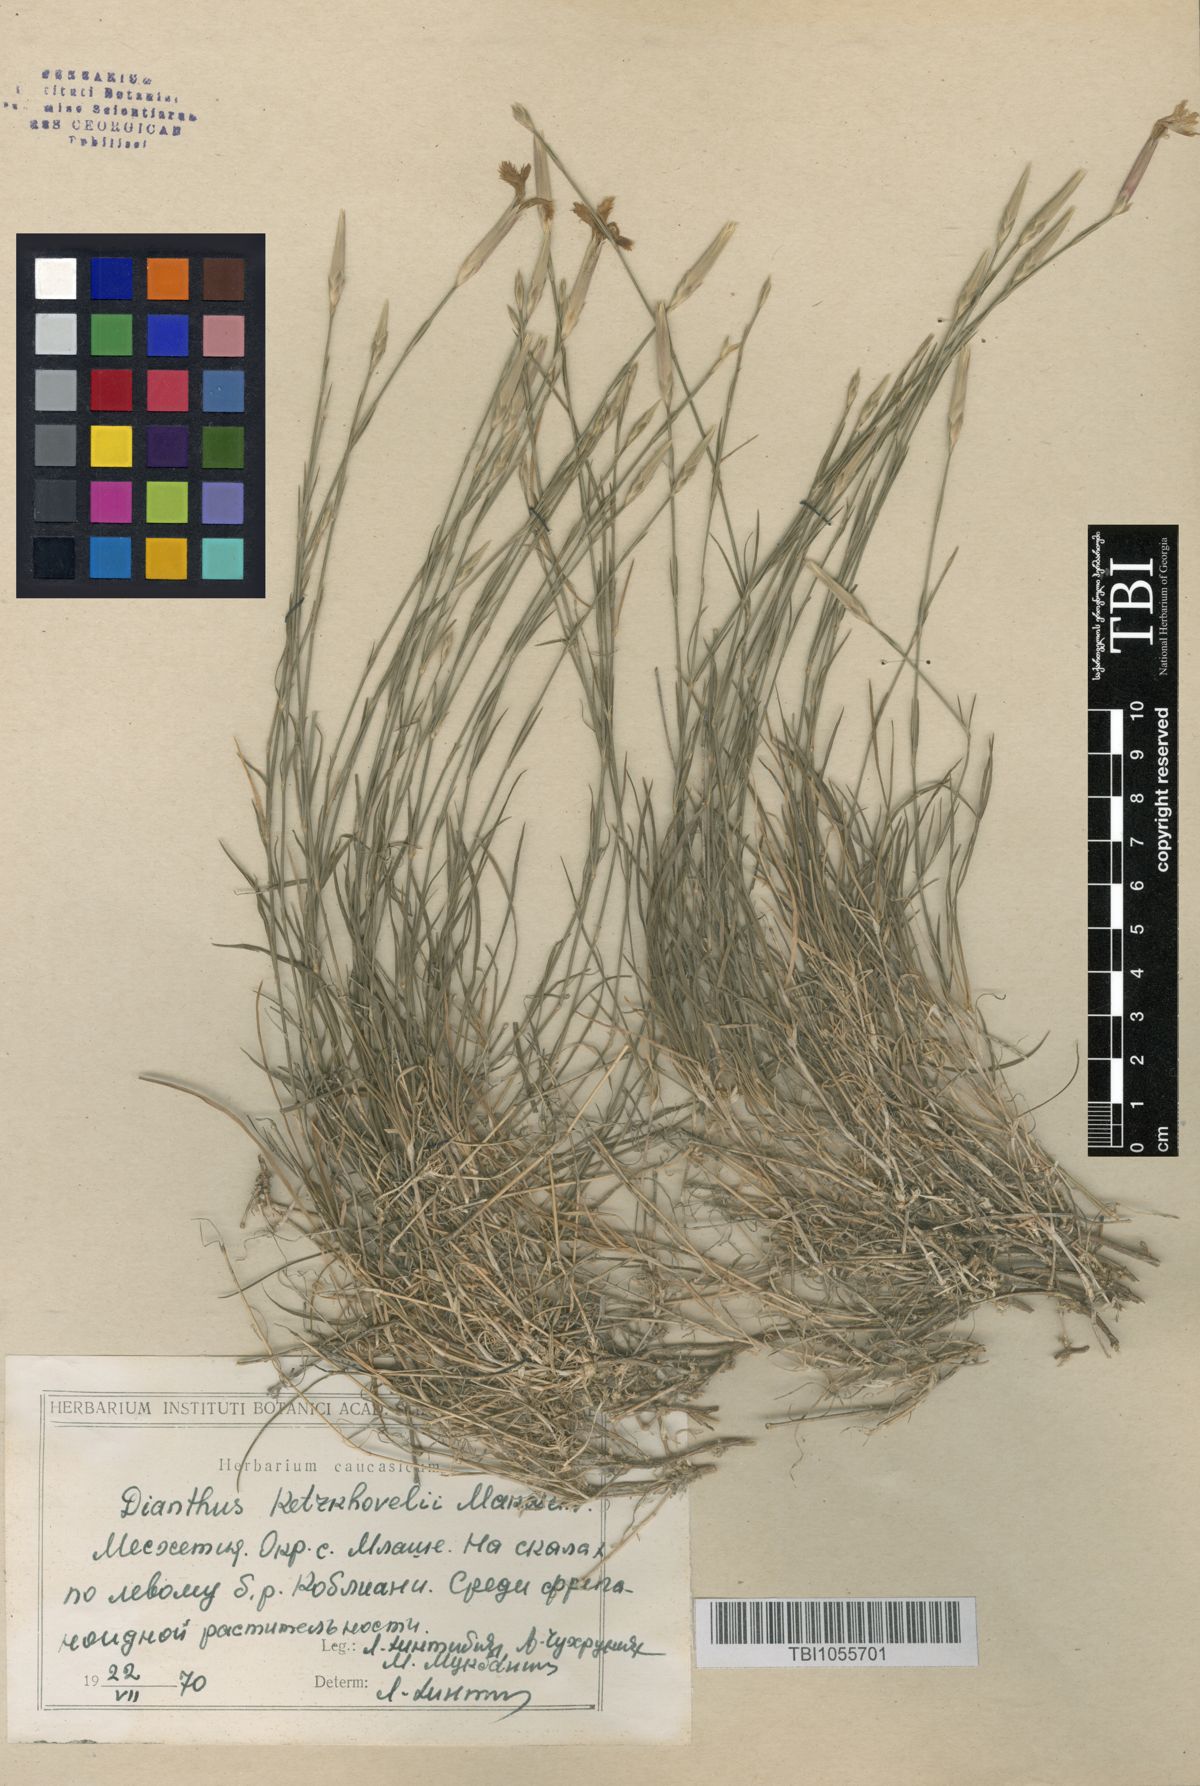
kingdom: Plantae
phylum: Tracheophyta
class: Magnoliopsida
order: Caryophyllales
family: Caryophyllaceae
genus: Dianthus
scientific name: Dianthus orientalis
